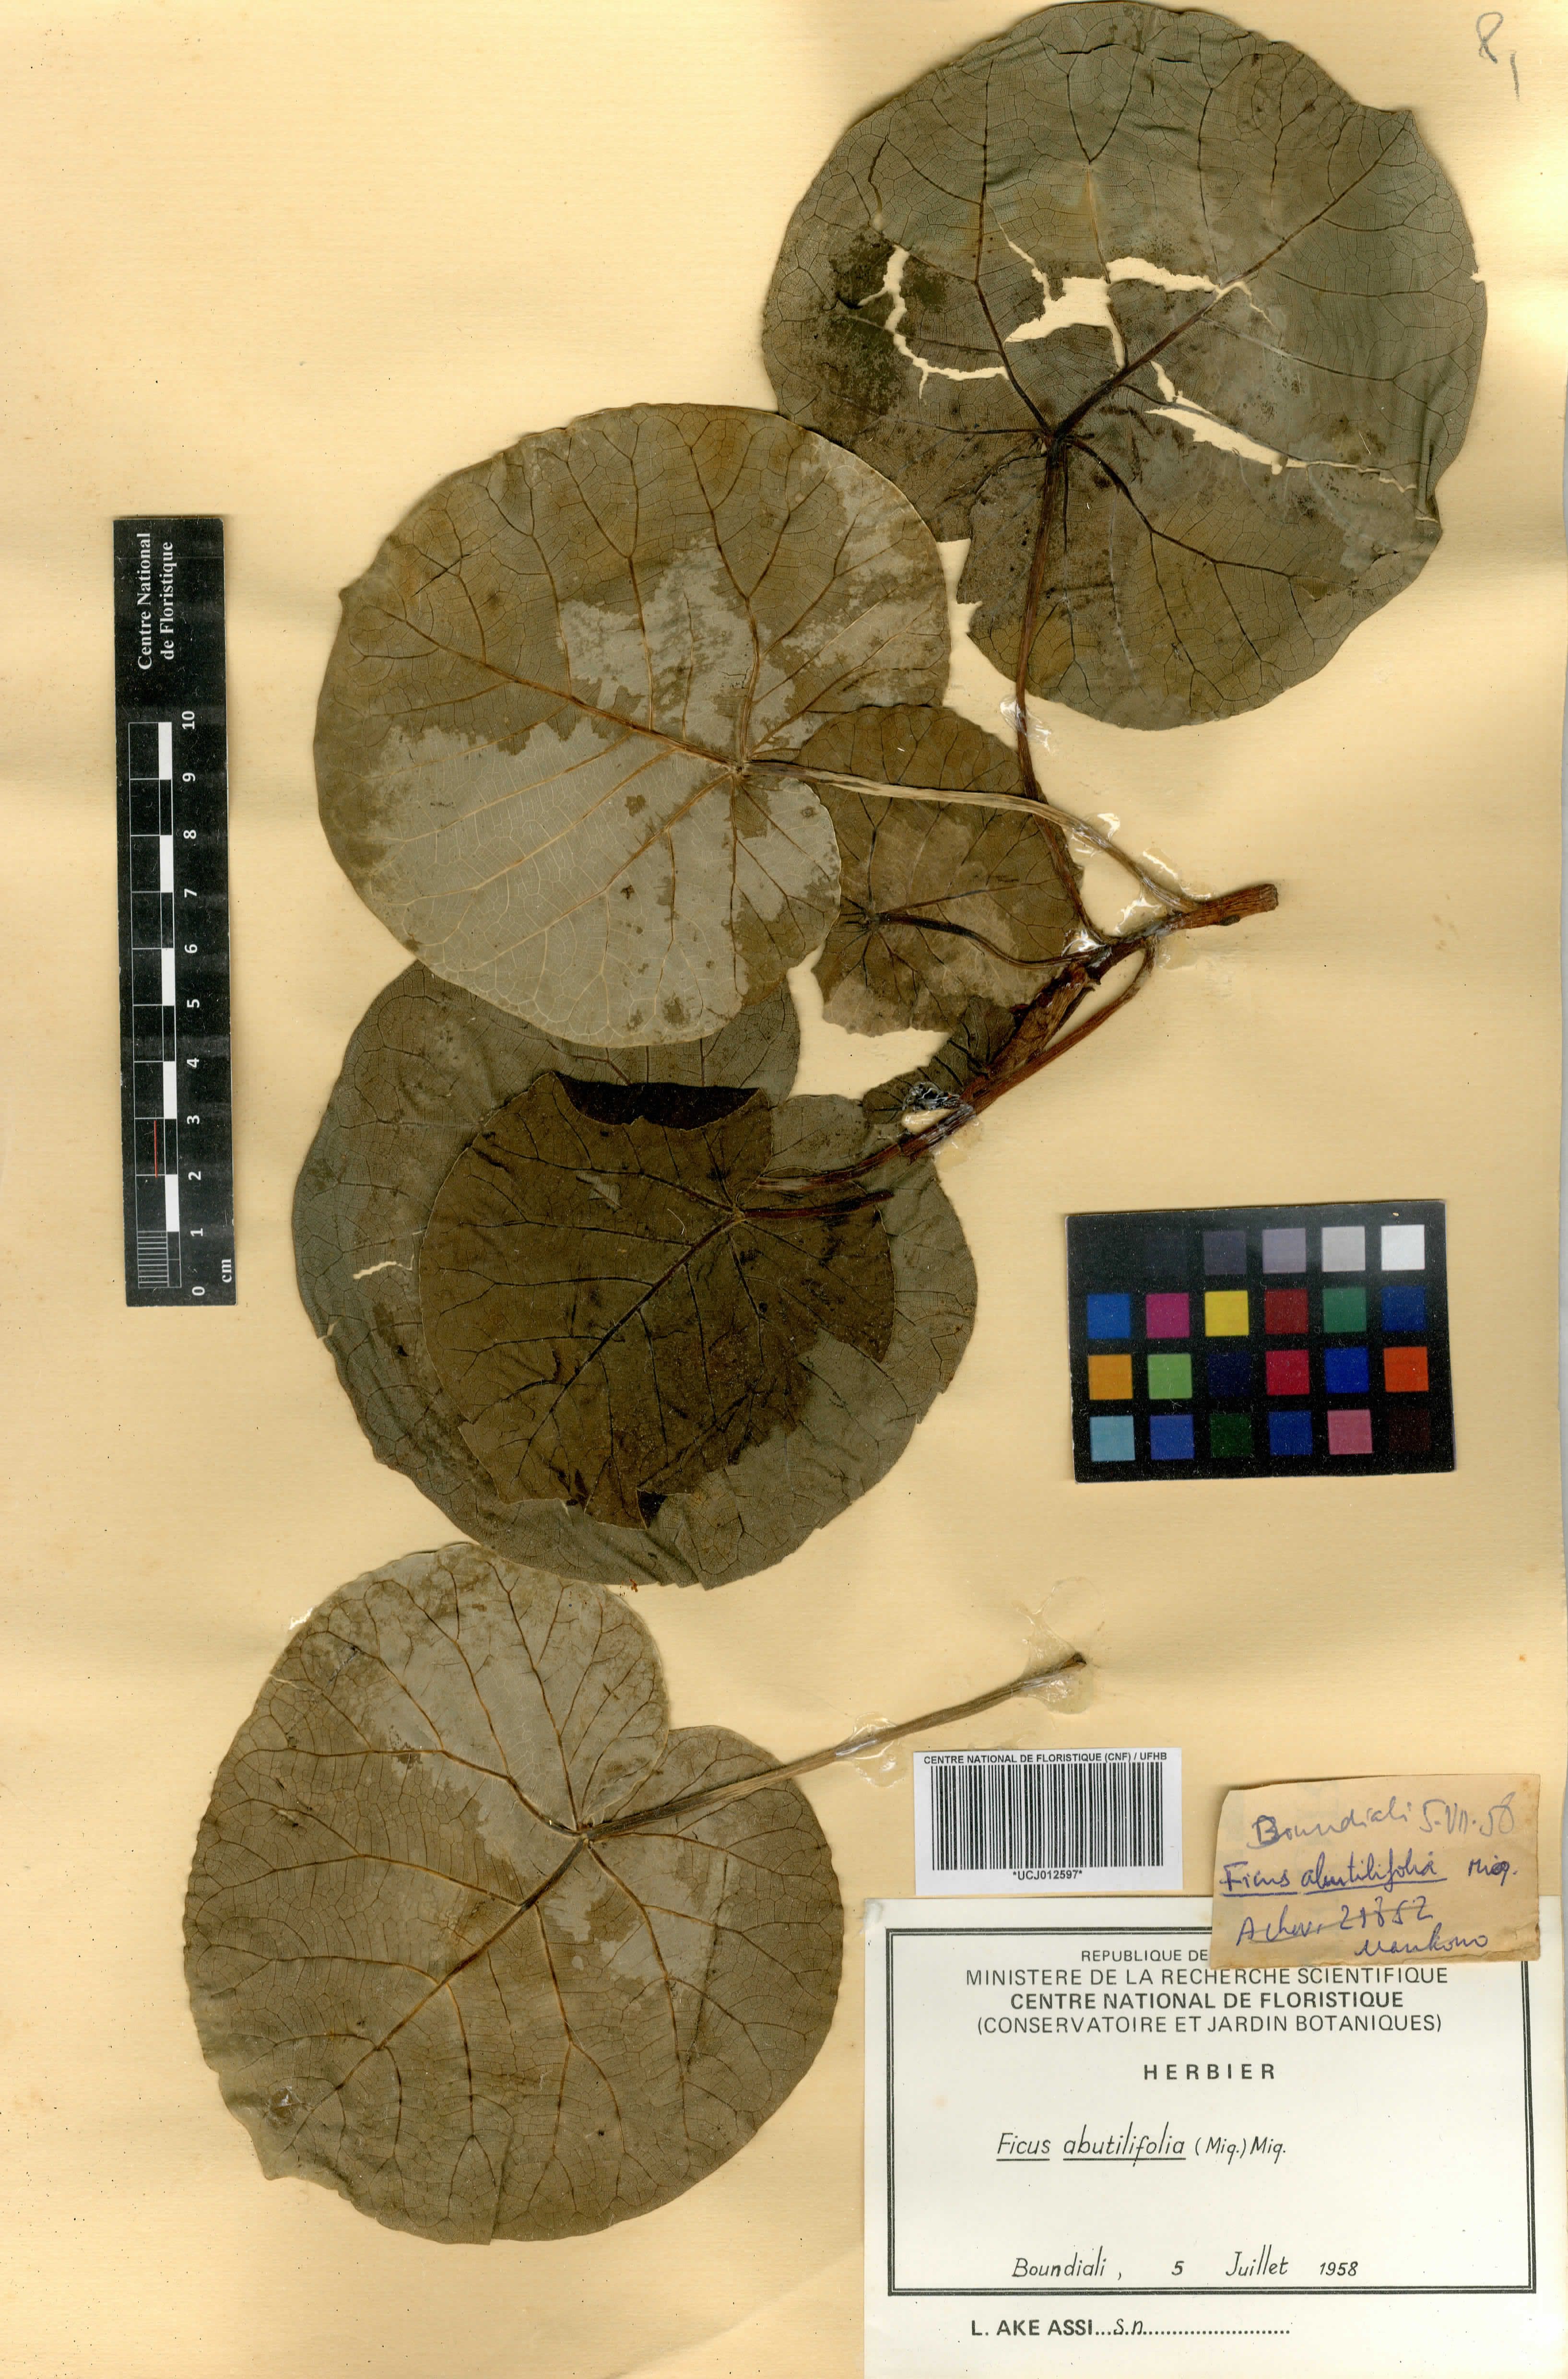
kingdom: Plantae
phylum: Tracheophyta
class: Magnoliopsida
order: Rosales
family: Moraceae
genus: Ficus
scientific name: Ficus abutilifolia
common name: Large-leaved rock fig
